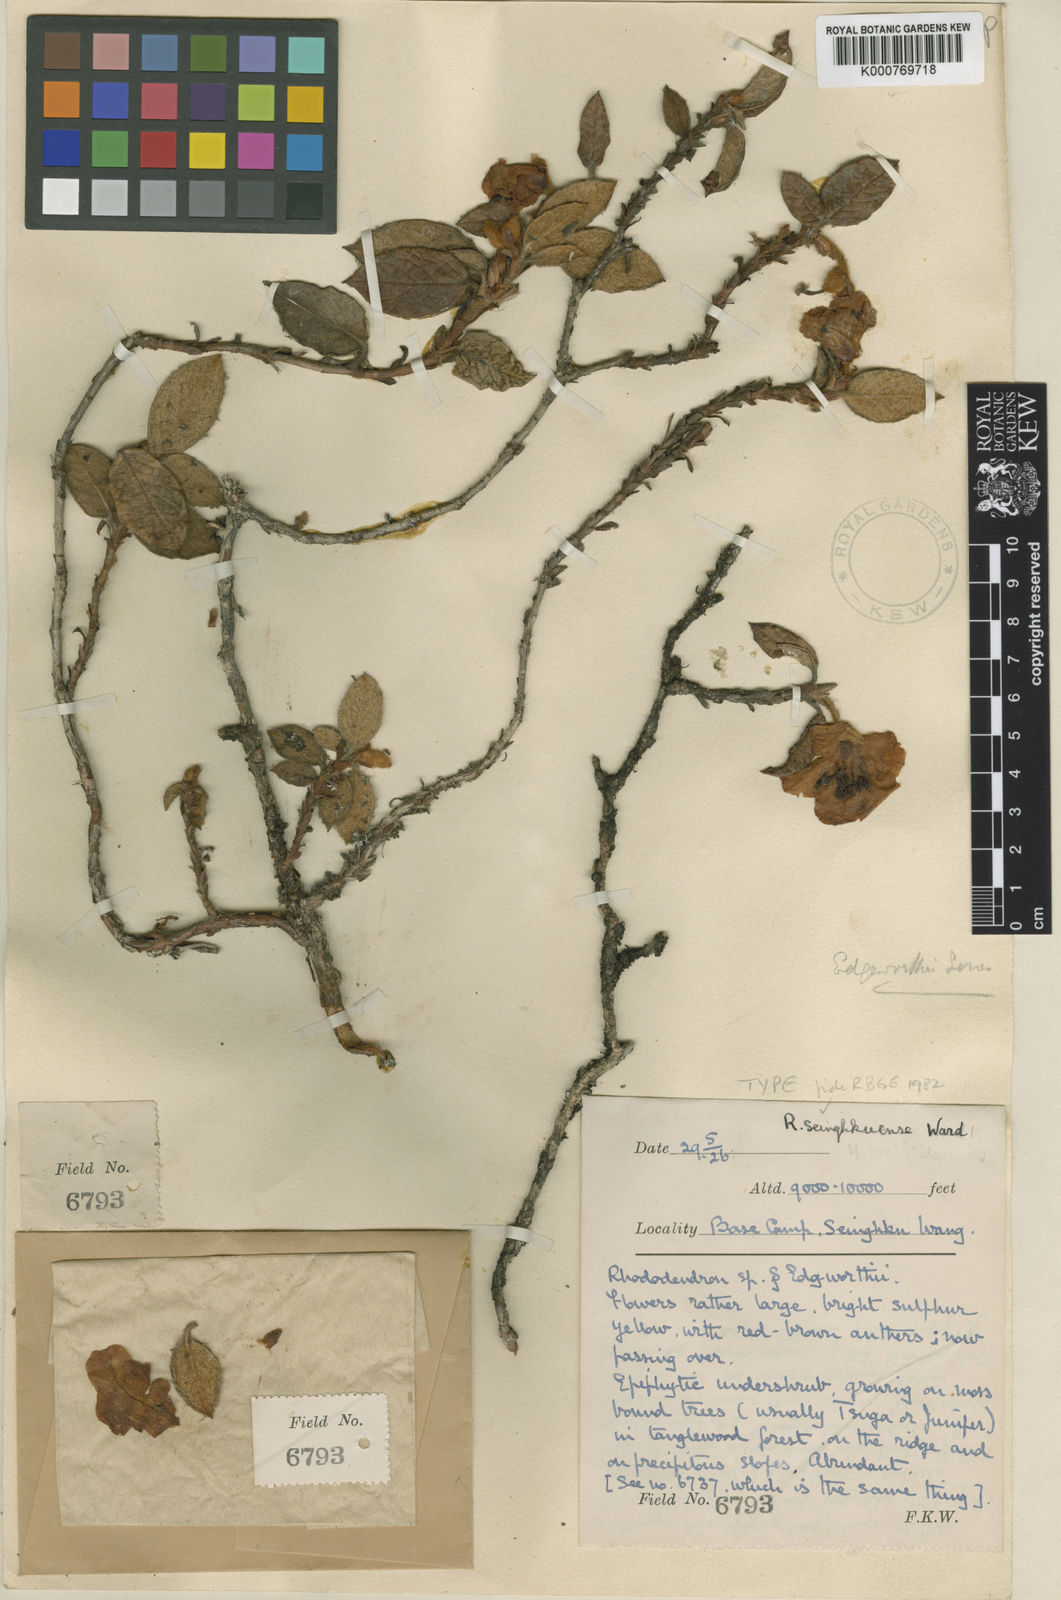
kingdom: Plantae
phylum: Tracheophyta
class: Magnoliopsida
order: Ericales
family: Ericaceae
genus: Rhododendron
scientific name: Rhododendron
